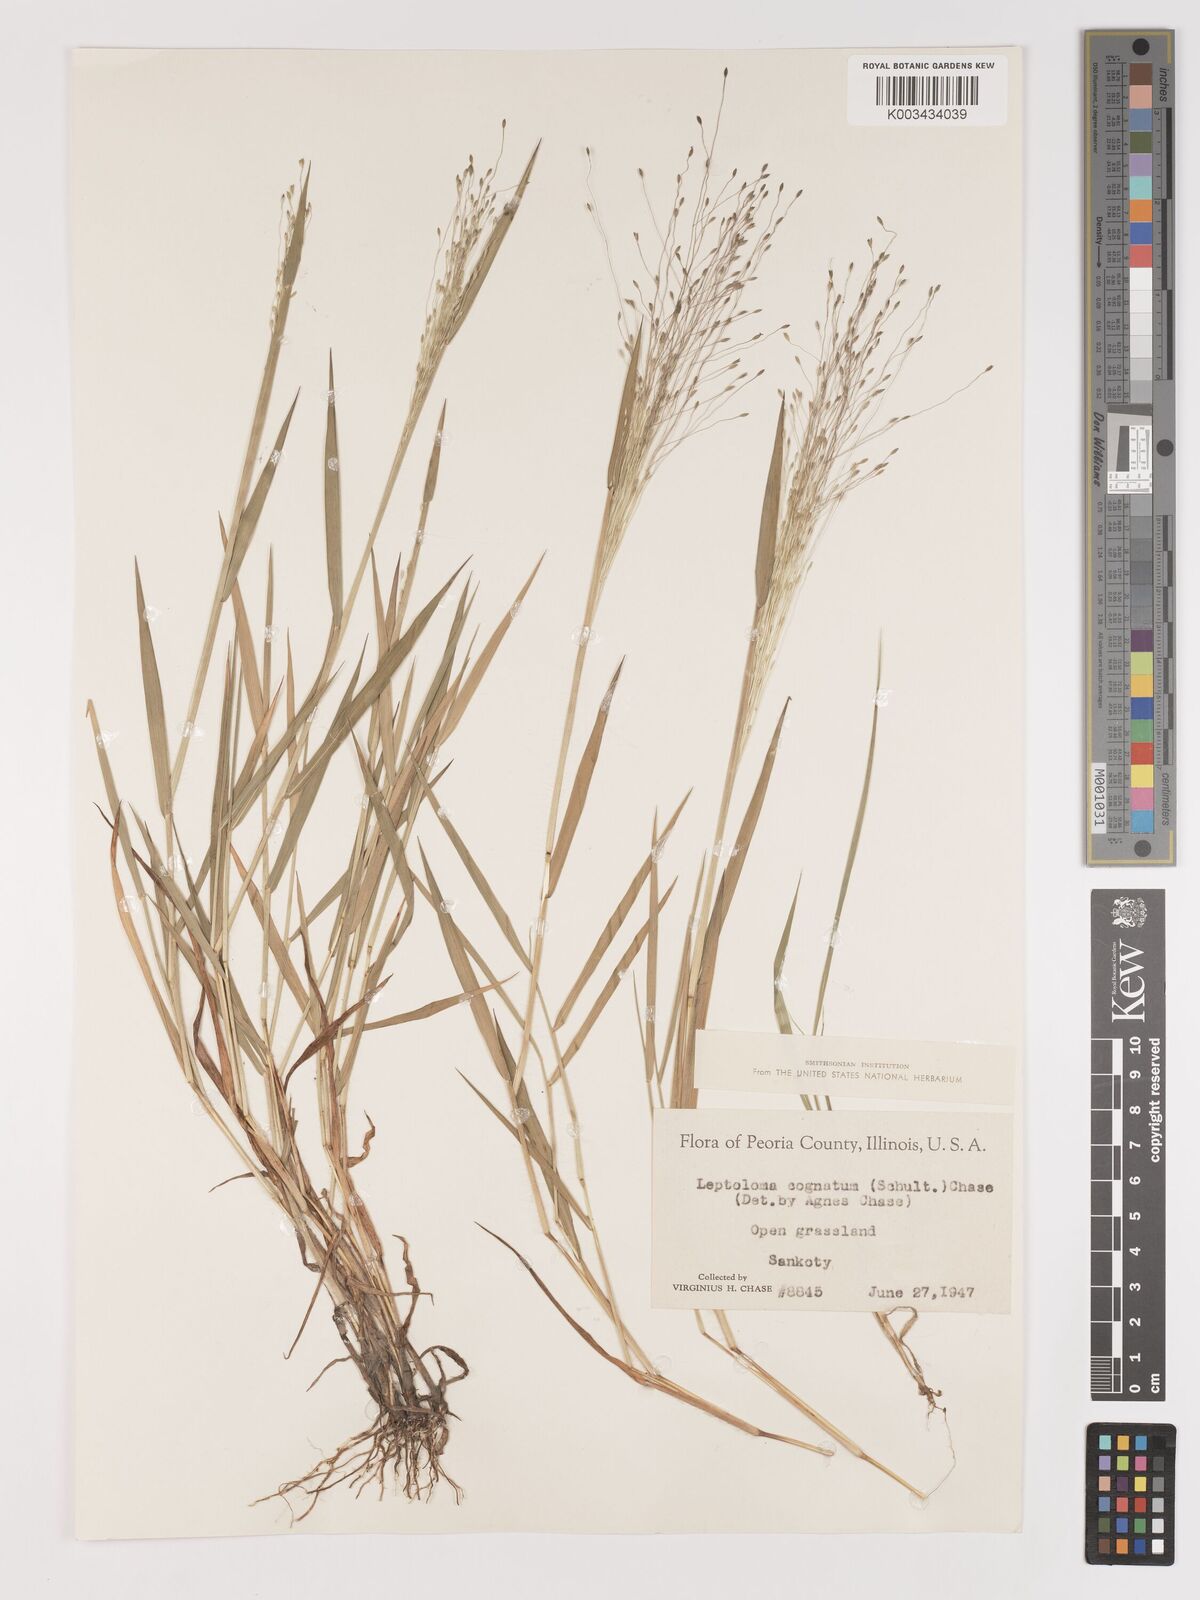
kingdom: Plantae
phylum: Tracheophyta
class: Liliopsida
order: Poales
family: Poaceae
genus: Digitaria
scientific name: Digitaria cognata
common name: Fall witchgrass
